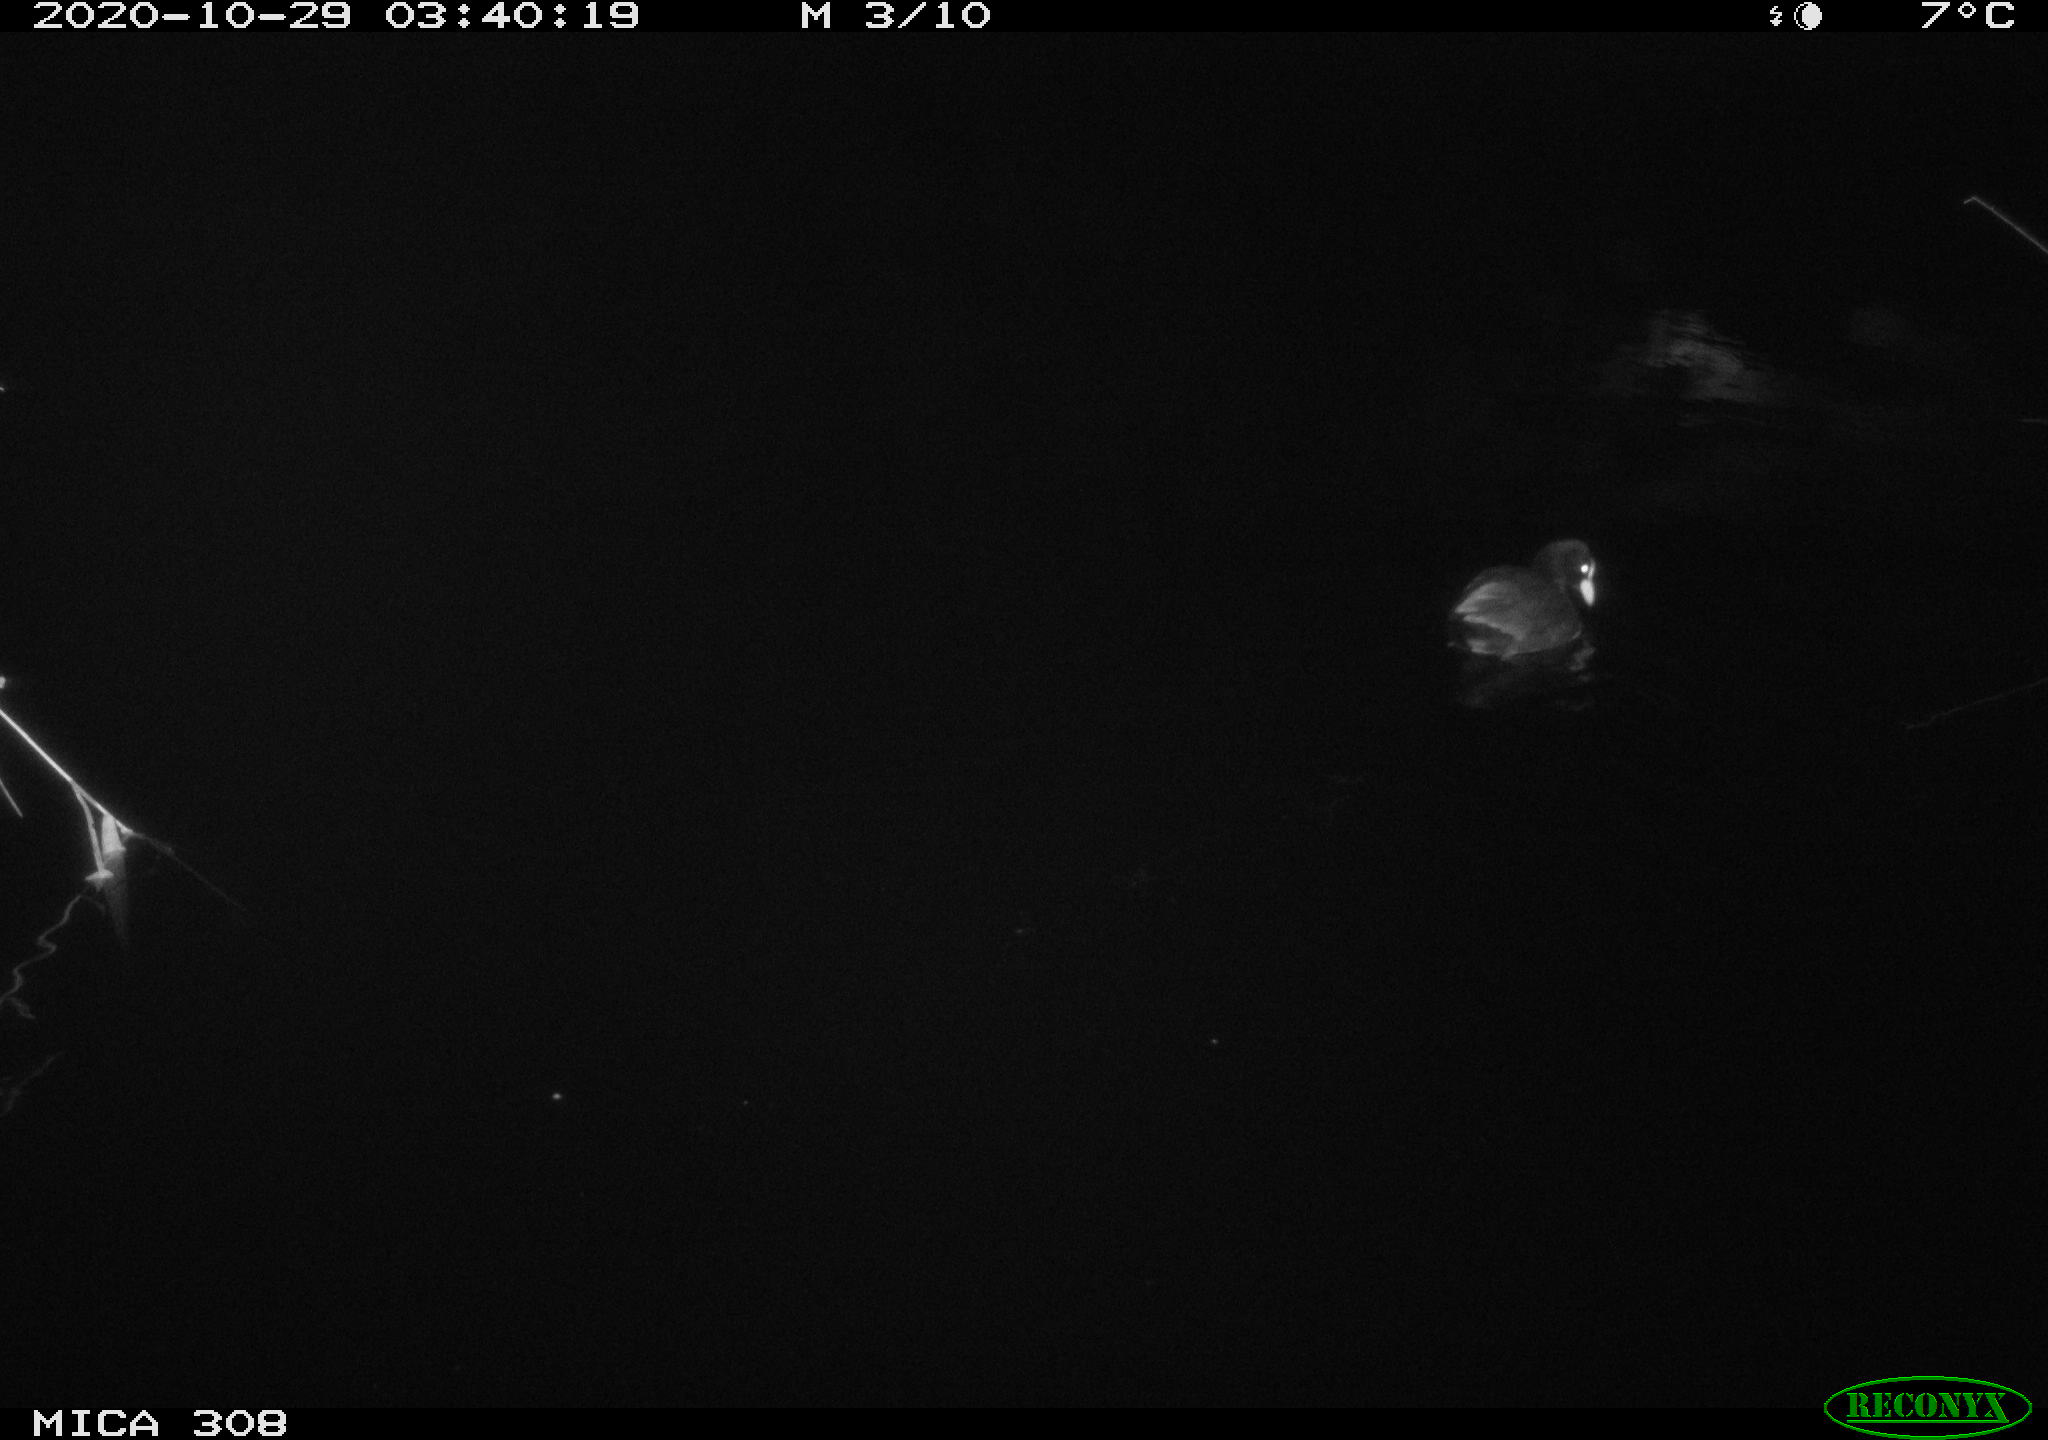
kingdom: Animalia
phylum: Chordata
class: Aves
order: Gruiformes
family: Rallidae
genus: Fulica
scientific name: Fulica atra
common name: Eurasian coot
